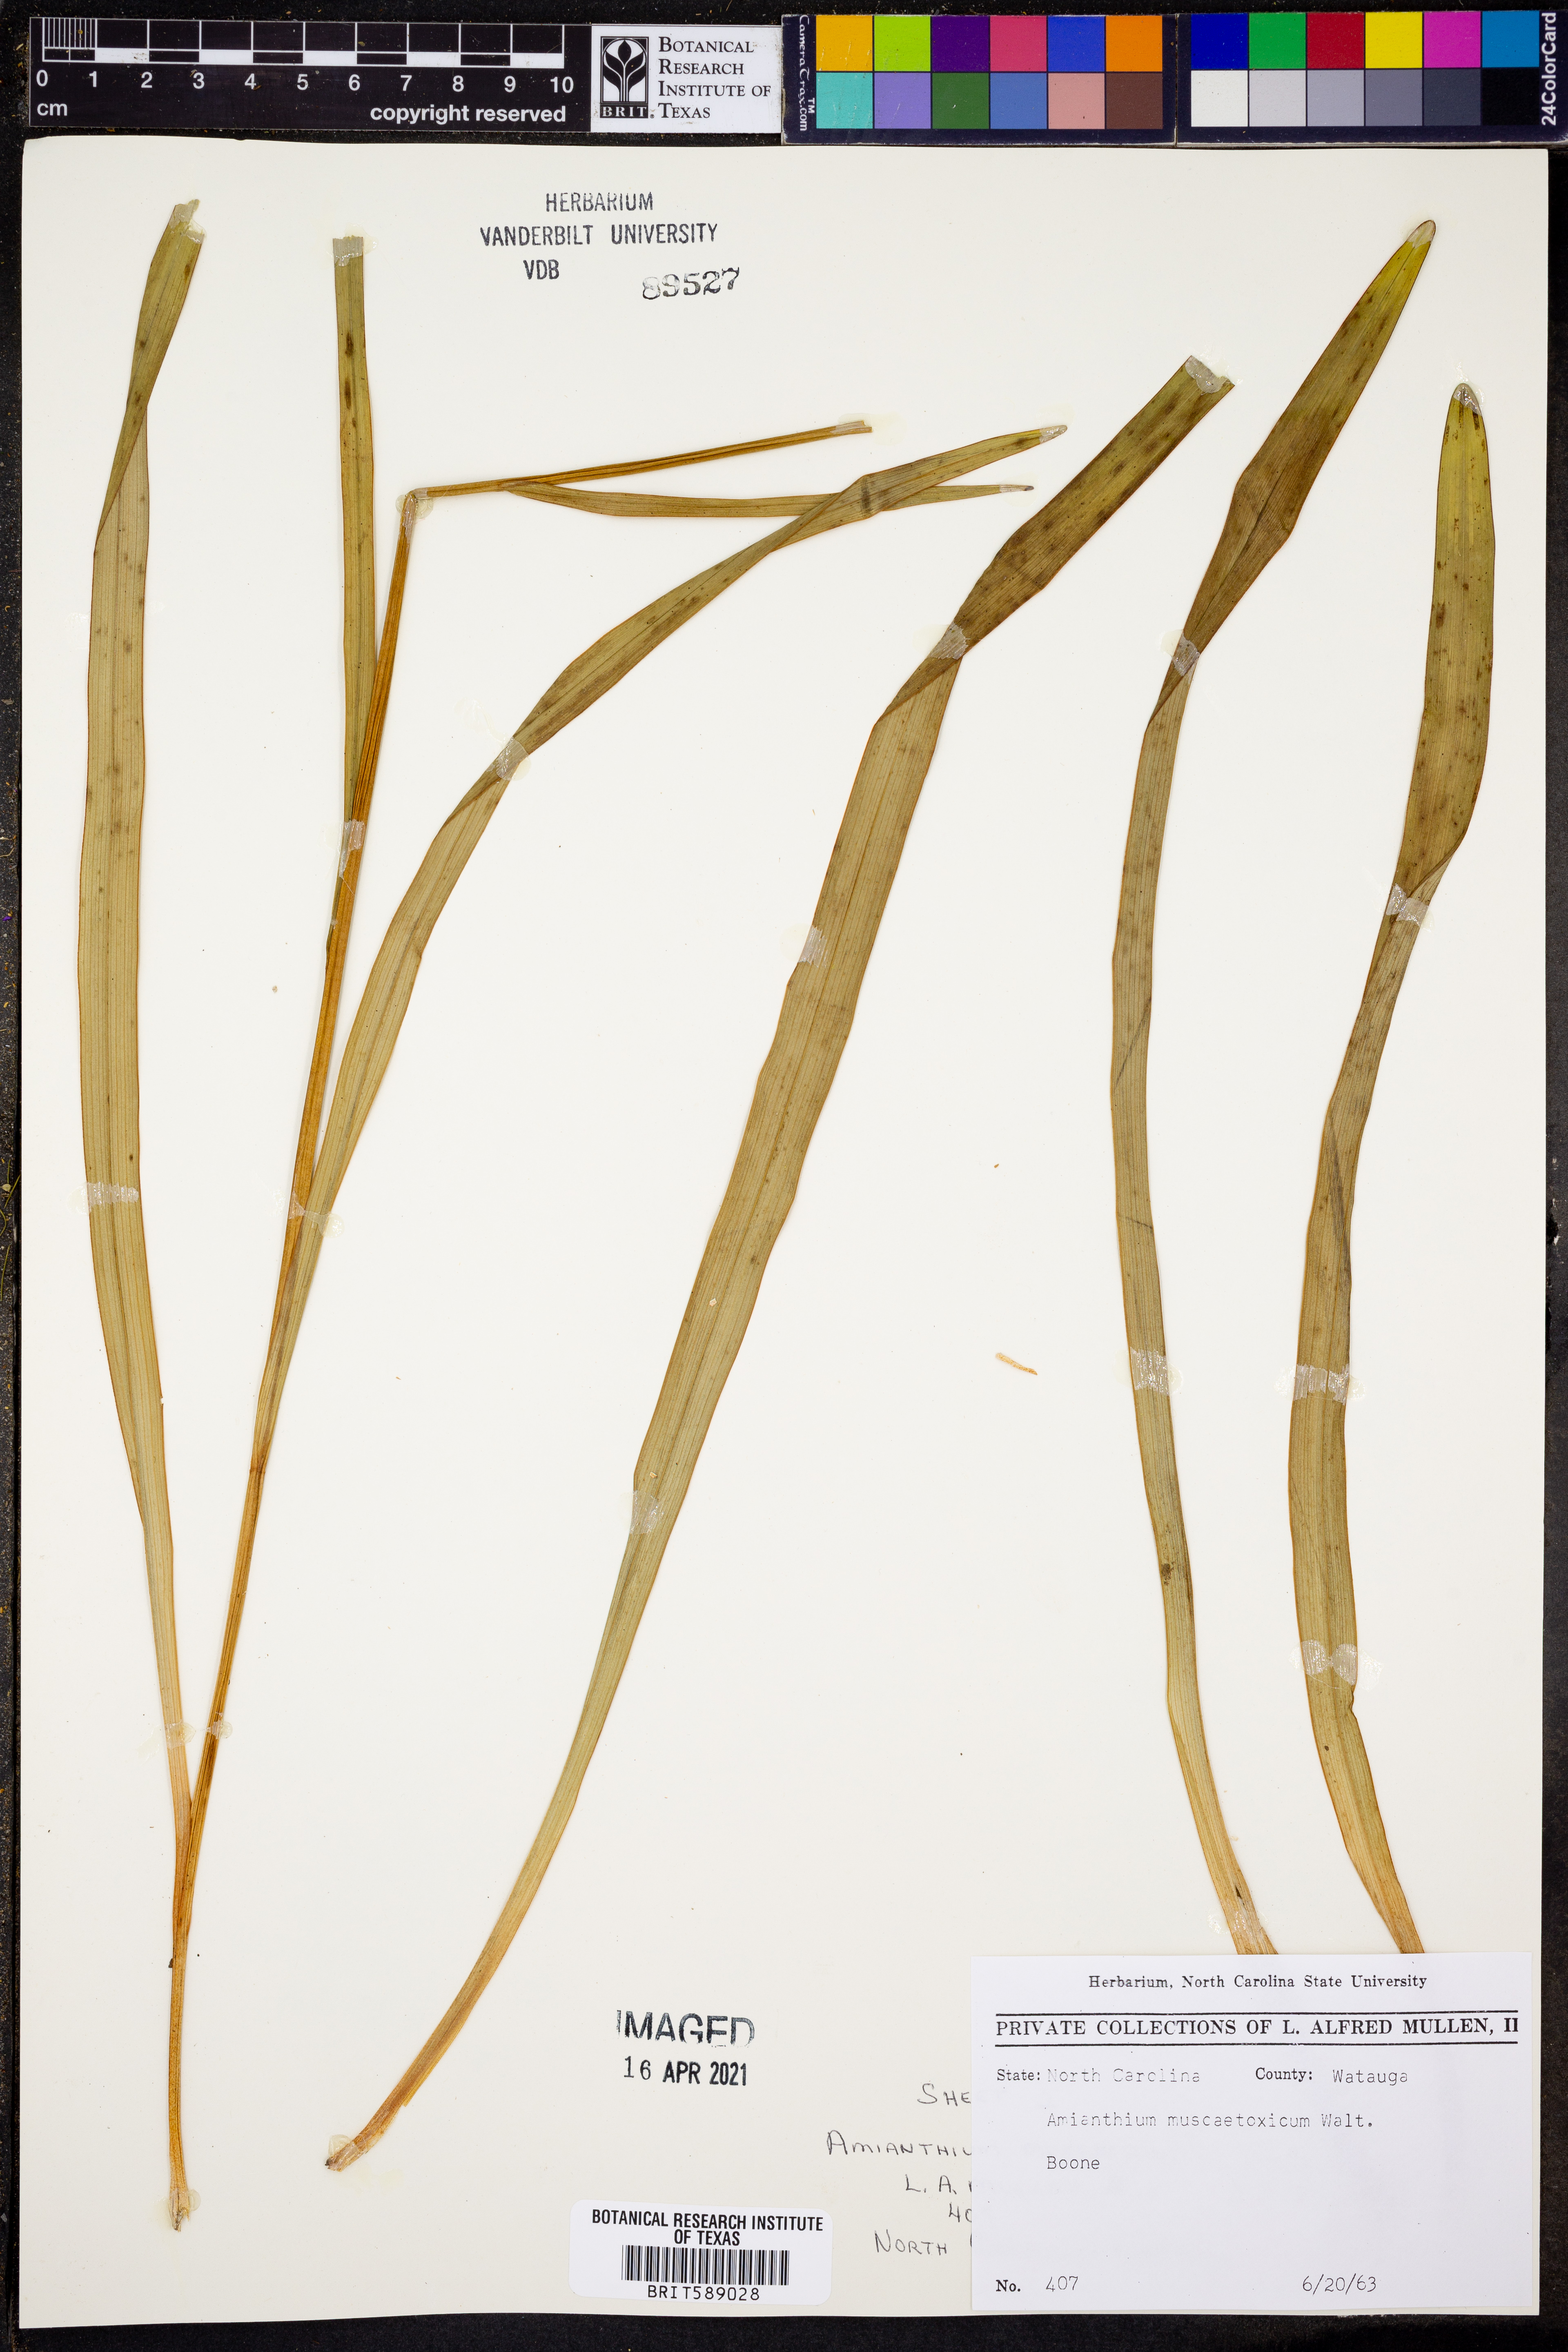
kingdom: Plantae
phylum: Tracheophyta
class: Liliopsida
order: Liliales
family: Melanthiaceae
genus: Amianthium
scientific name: Amianthium muscitoxicum
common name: Fly-poison
